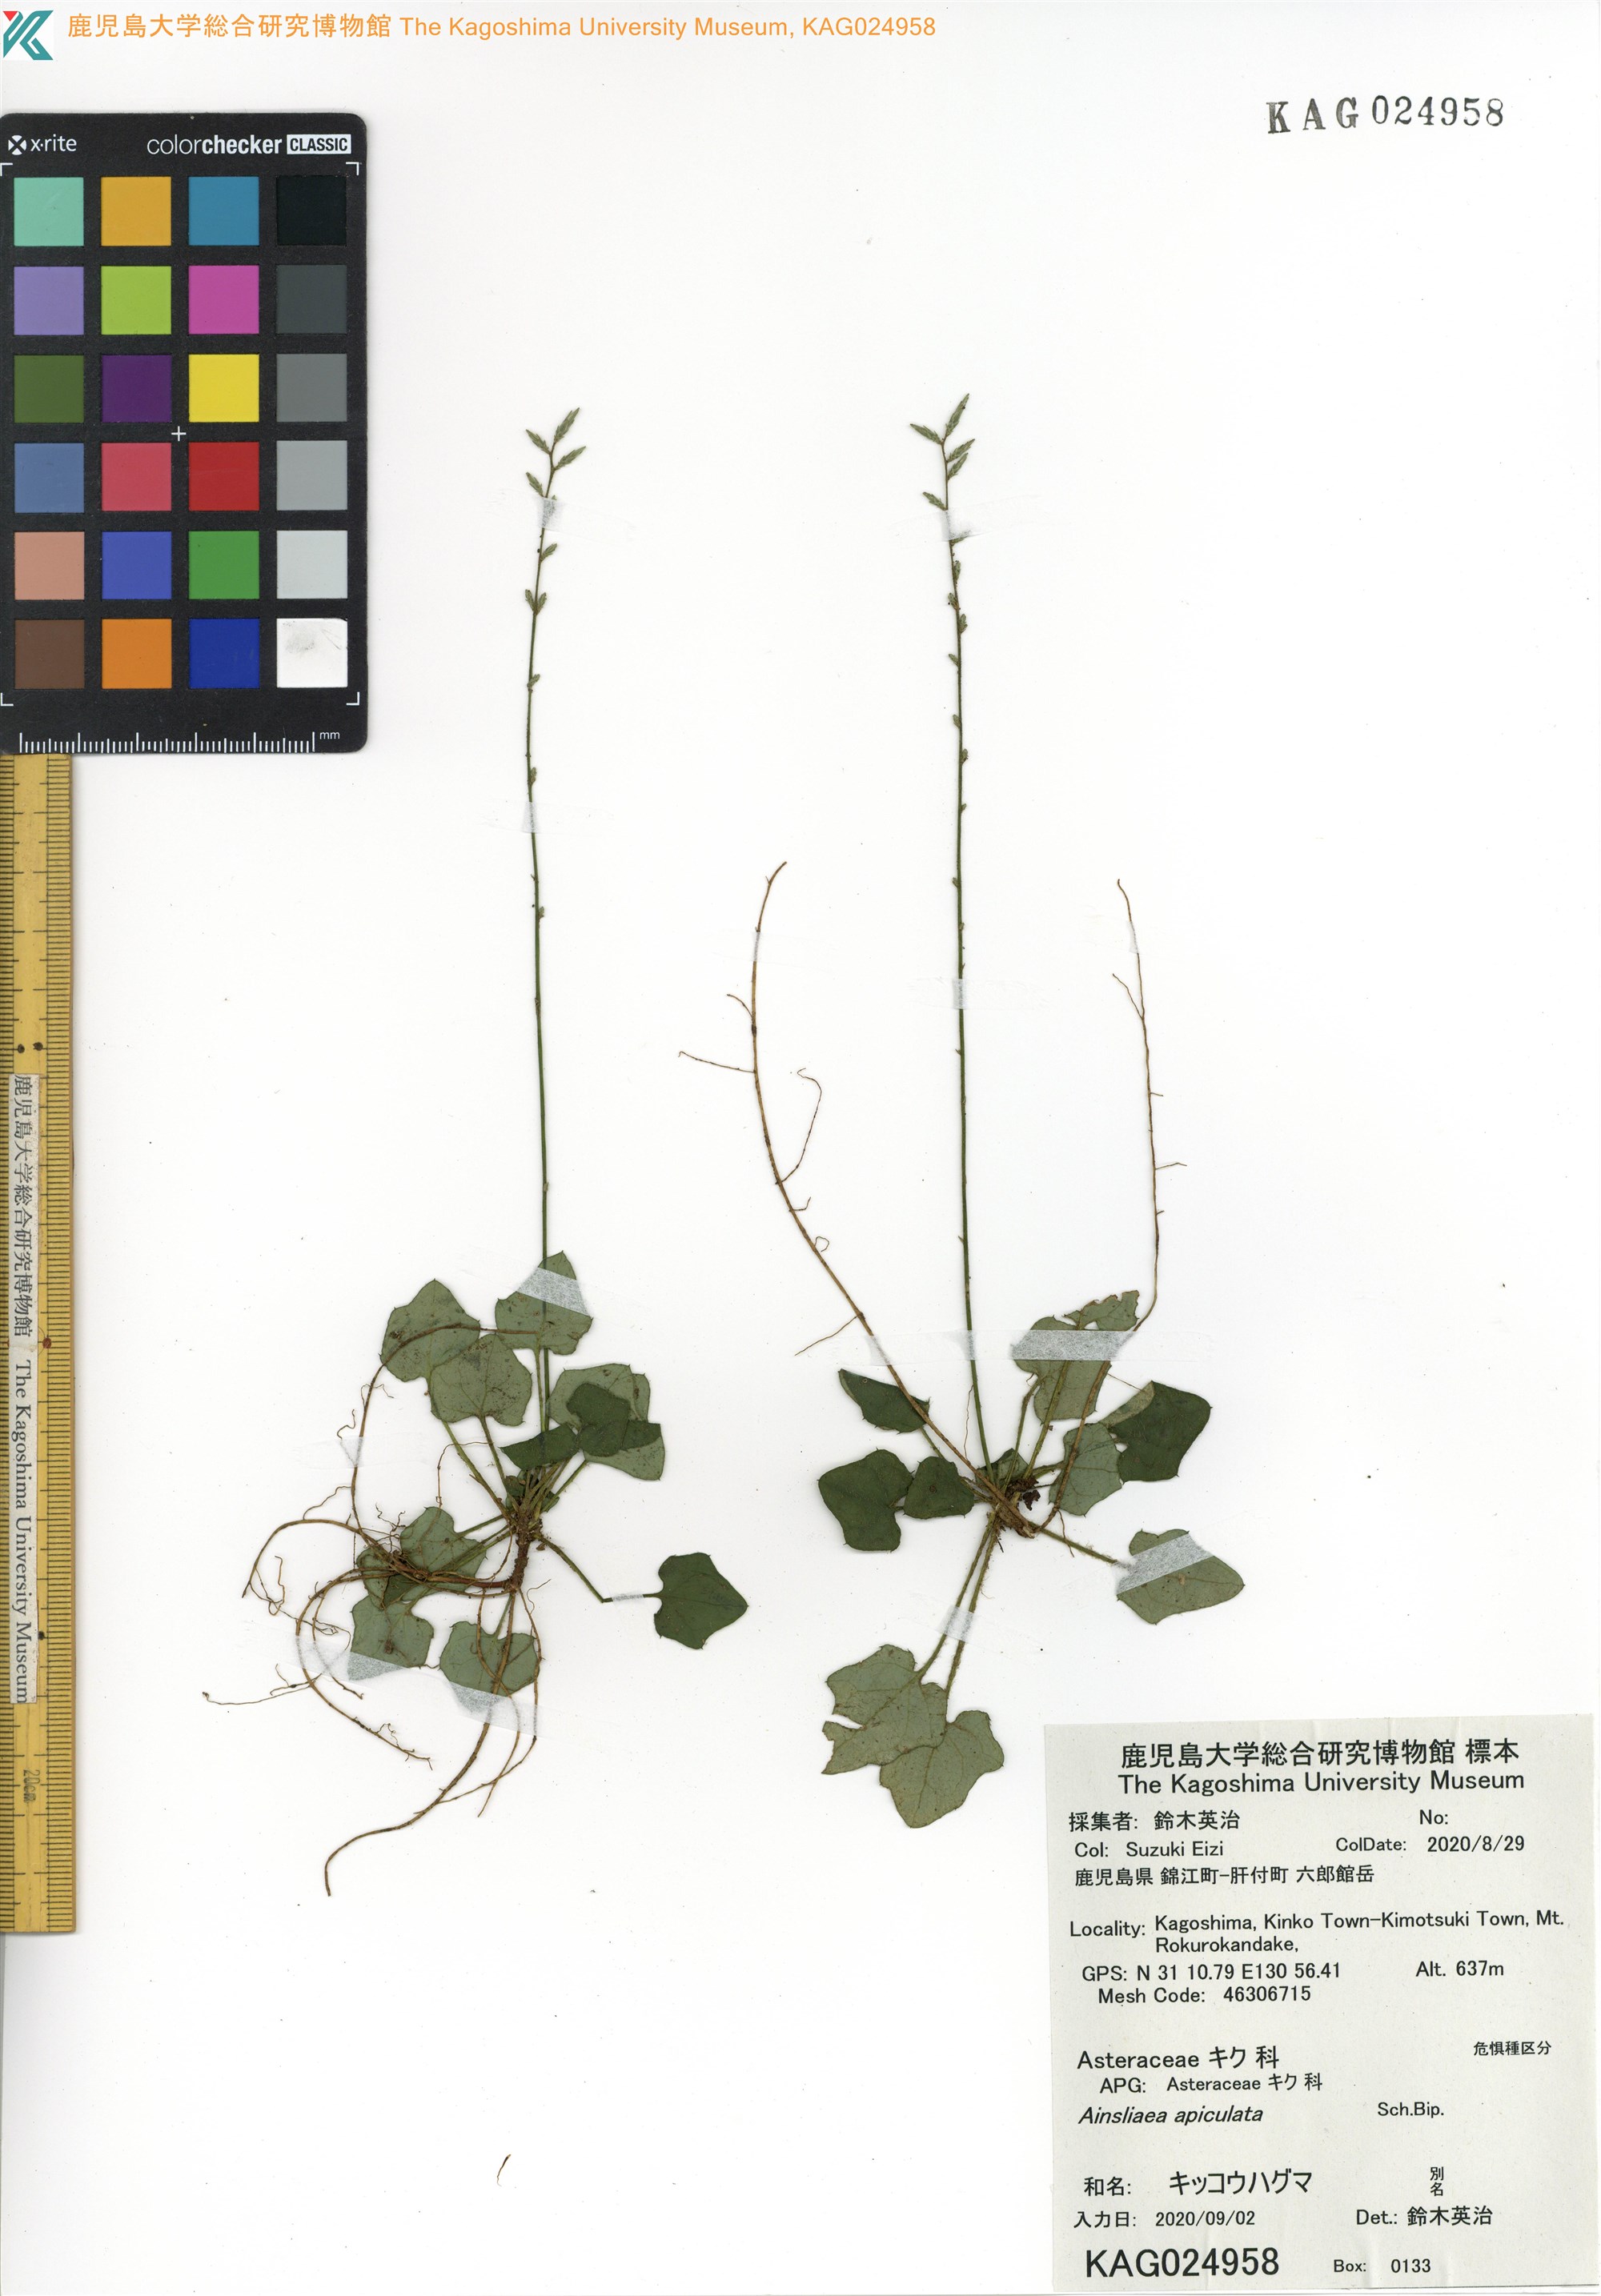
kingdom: Plantae
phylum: Tracheophyta
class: Magnoliopsida
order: Asterales
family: Asteraceae
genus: Ainsliaea
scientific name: Ainsliaea apiculata
